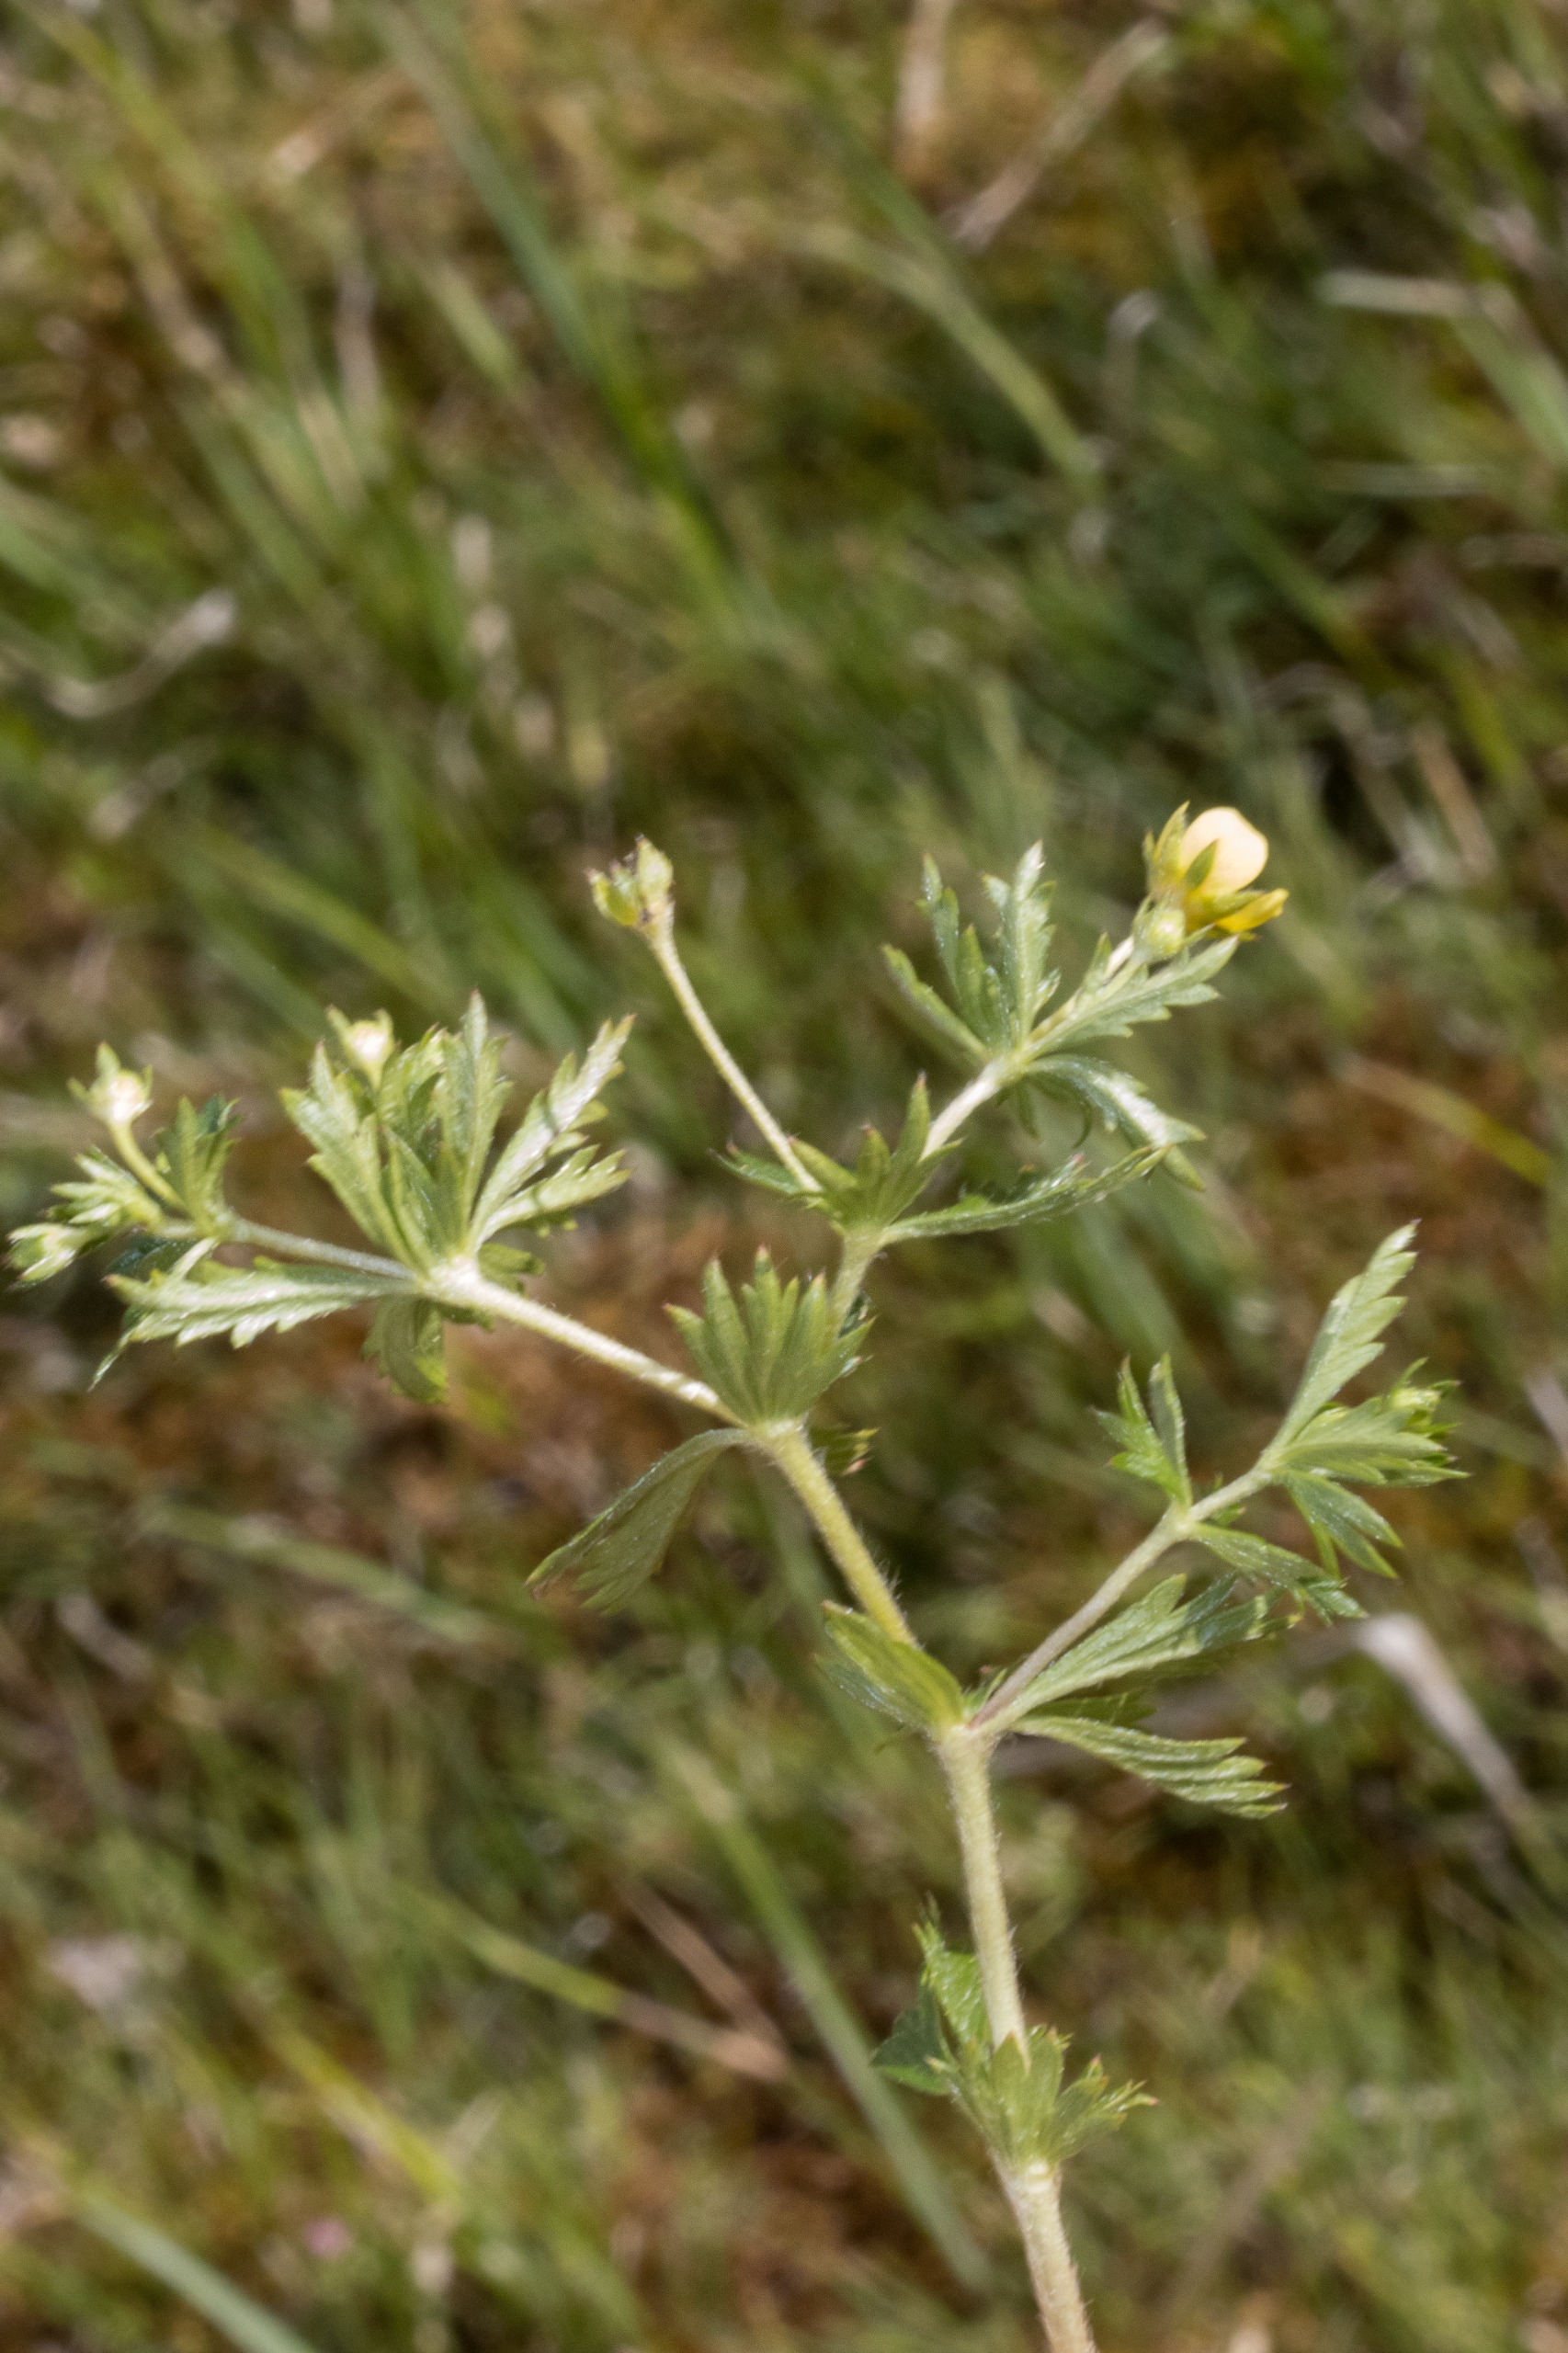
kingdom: Plantae
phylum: Tracheophyta
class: Magnoliopsida
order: Rosales
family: Rosaceae
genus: Potentilla
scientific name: Potentilla erecta
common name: Tormentil
